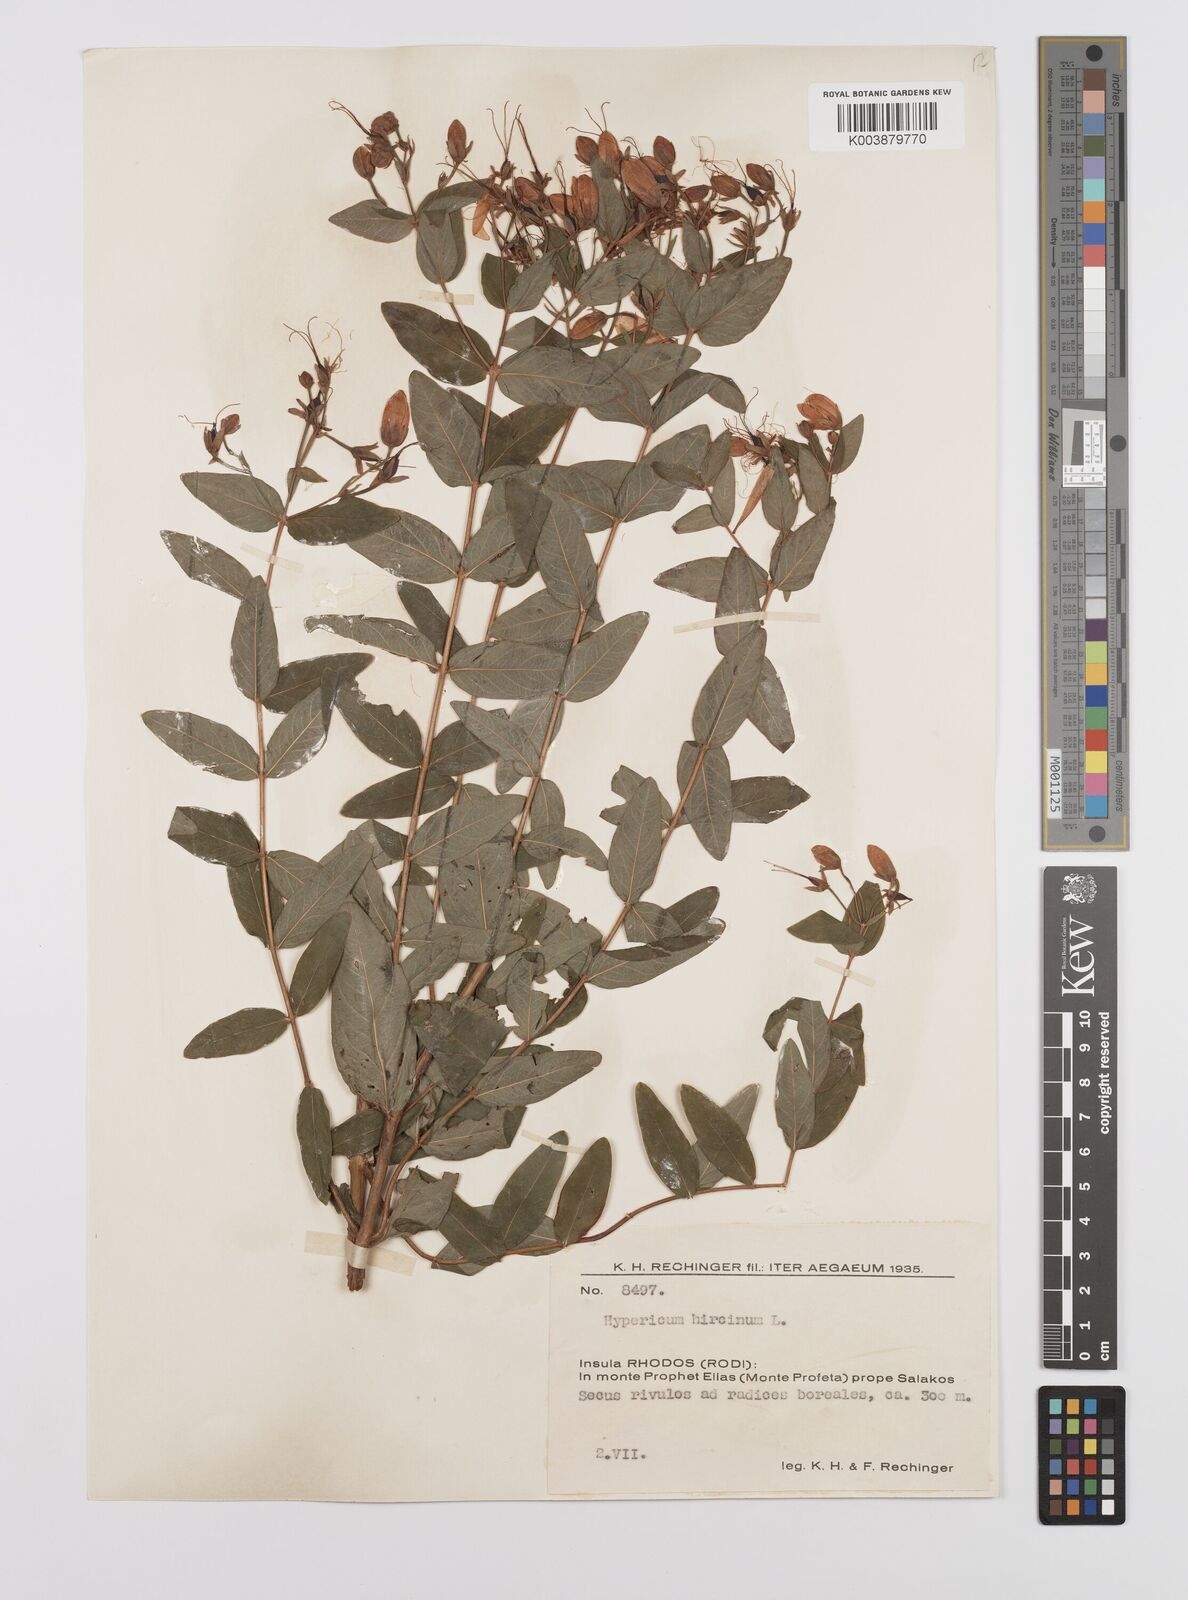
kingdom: Plantae
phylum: Tracheophyta
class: Magnoliopsida
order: Malpighiales
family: Hypericaceae
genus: Hypericum
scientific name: Hypericum hircinum
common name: Stinking tutsan
